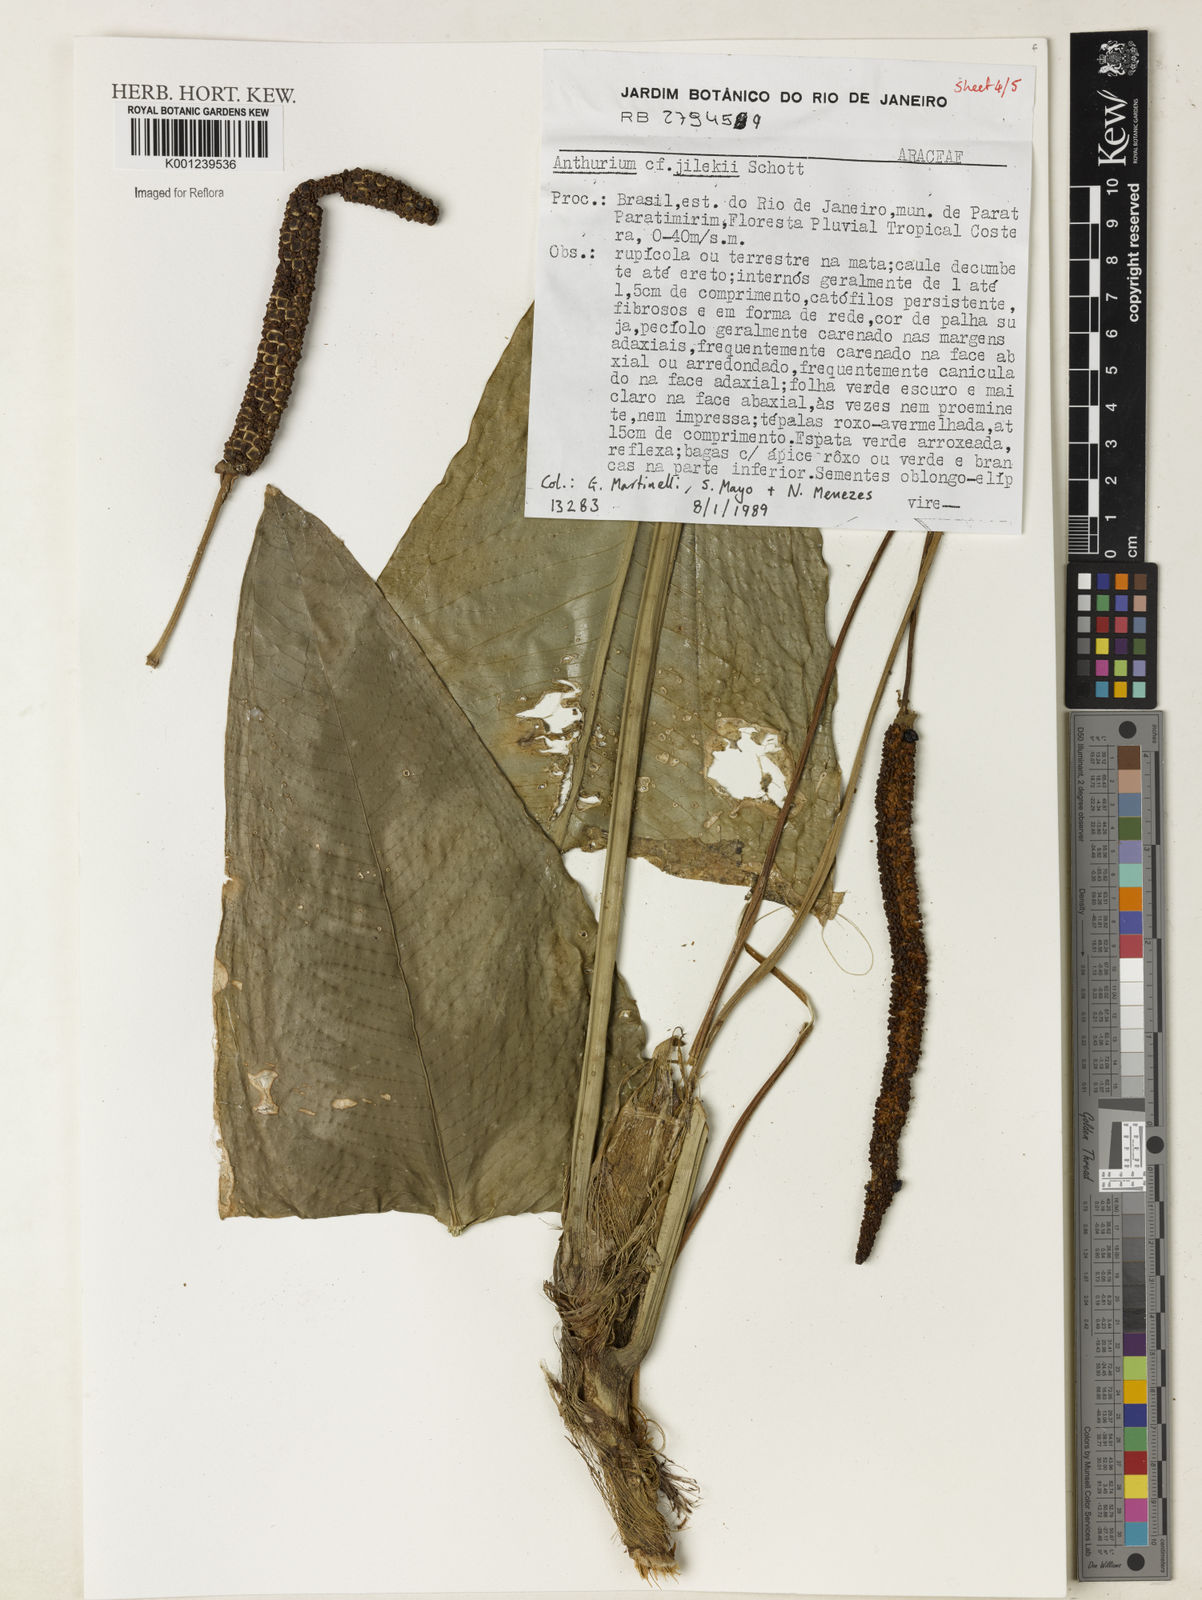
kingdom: Plantae
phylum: Tracheophyta
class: Liliopsida
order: Alismatales
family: Araceae
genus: Anthurium
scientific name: Anthurium jilekii
